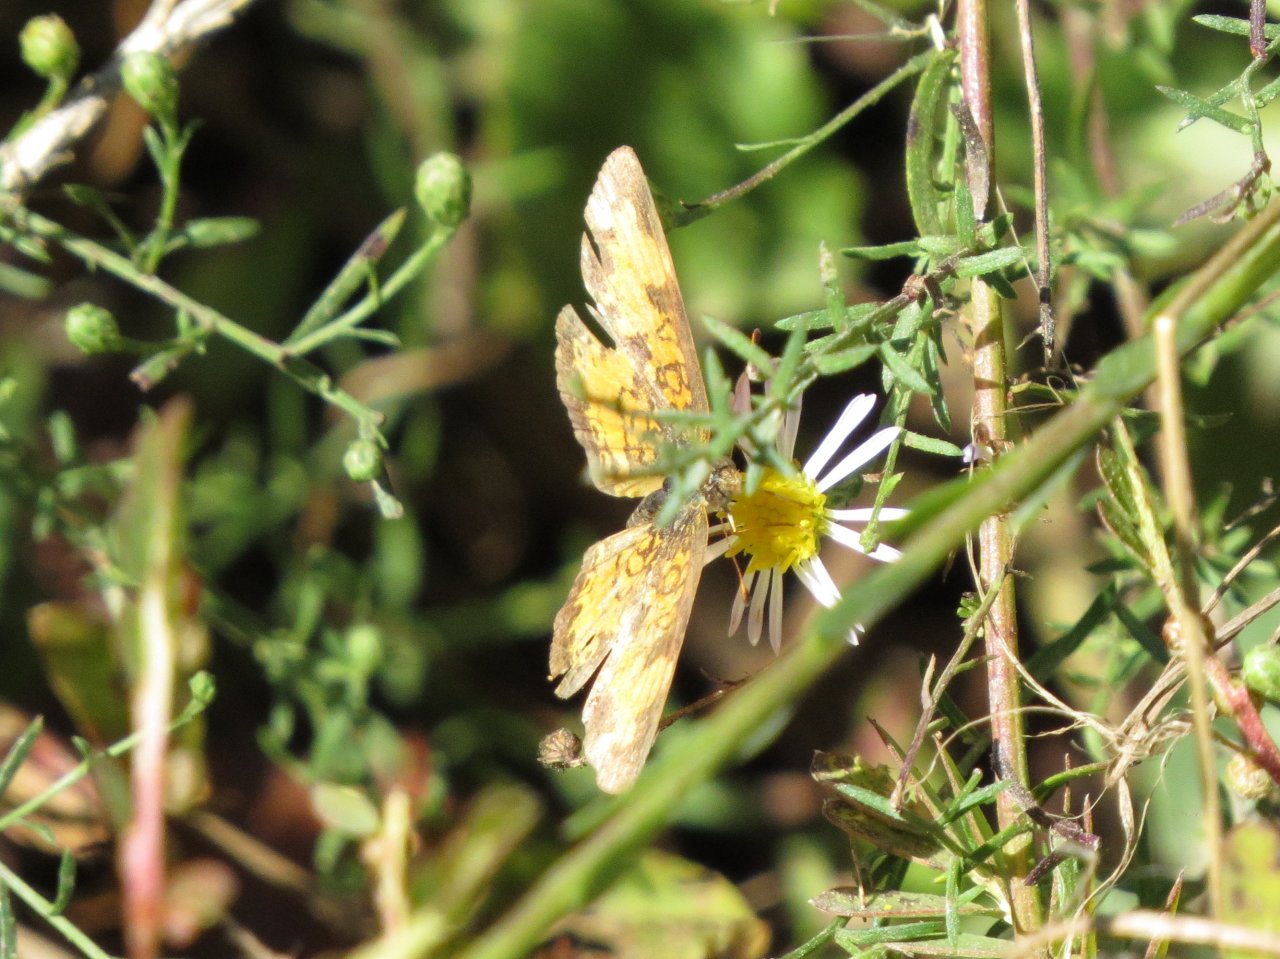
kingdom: Animalia
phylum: Arthropoda
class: Insecta
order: Lepidoptera
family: Nymphalidae
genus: Phyciodes
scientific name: Phyciodes tharos
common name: Pearl Crescent
